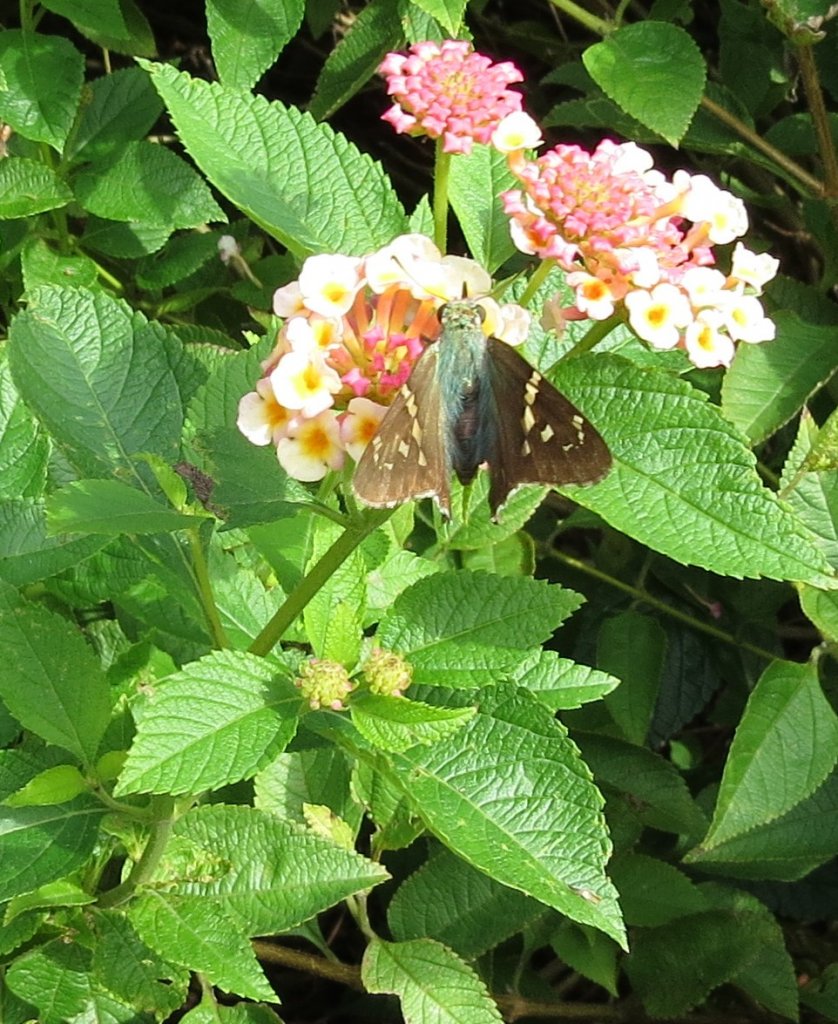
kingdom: Animalia
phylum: Arthropoda
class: Insecta
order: Lepidoptera
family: Hesperiidae
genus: Urbanus
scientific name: Urbanus proteus
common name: Long-tailed Skipper
